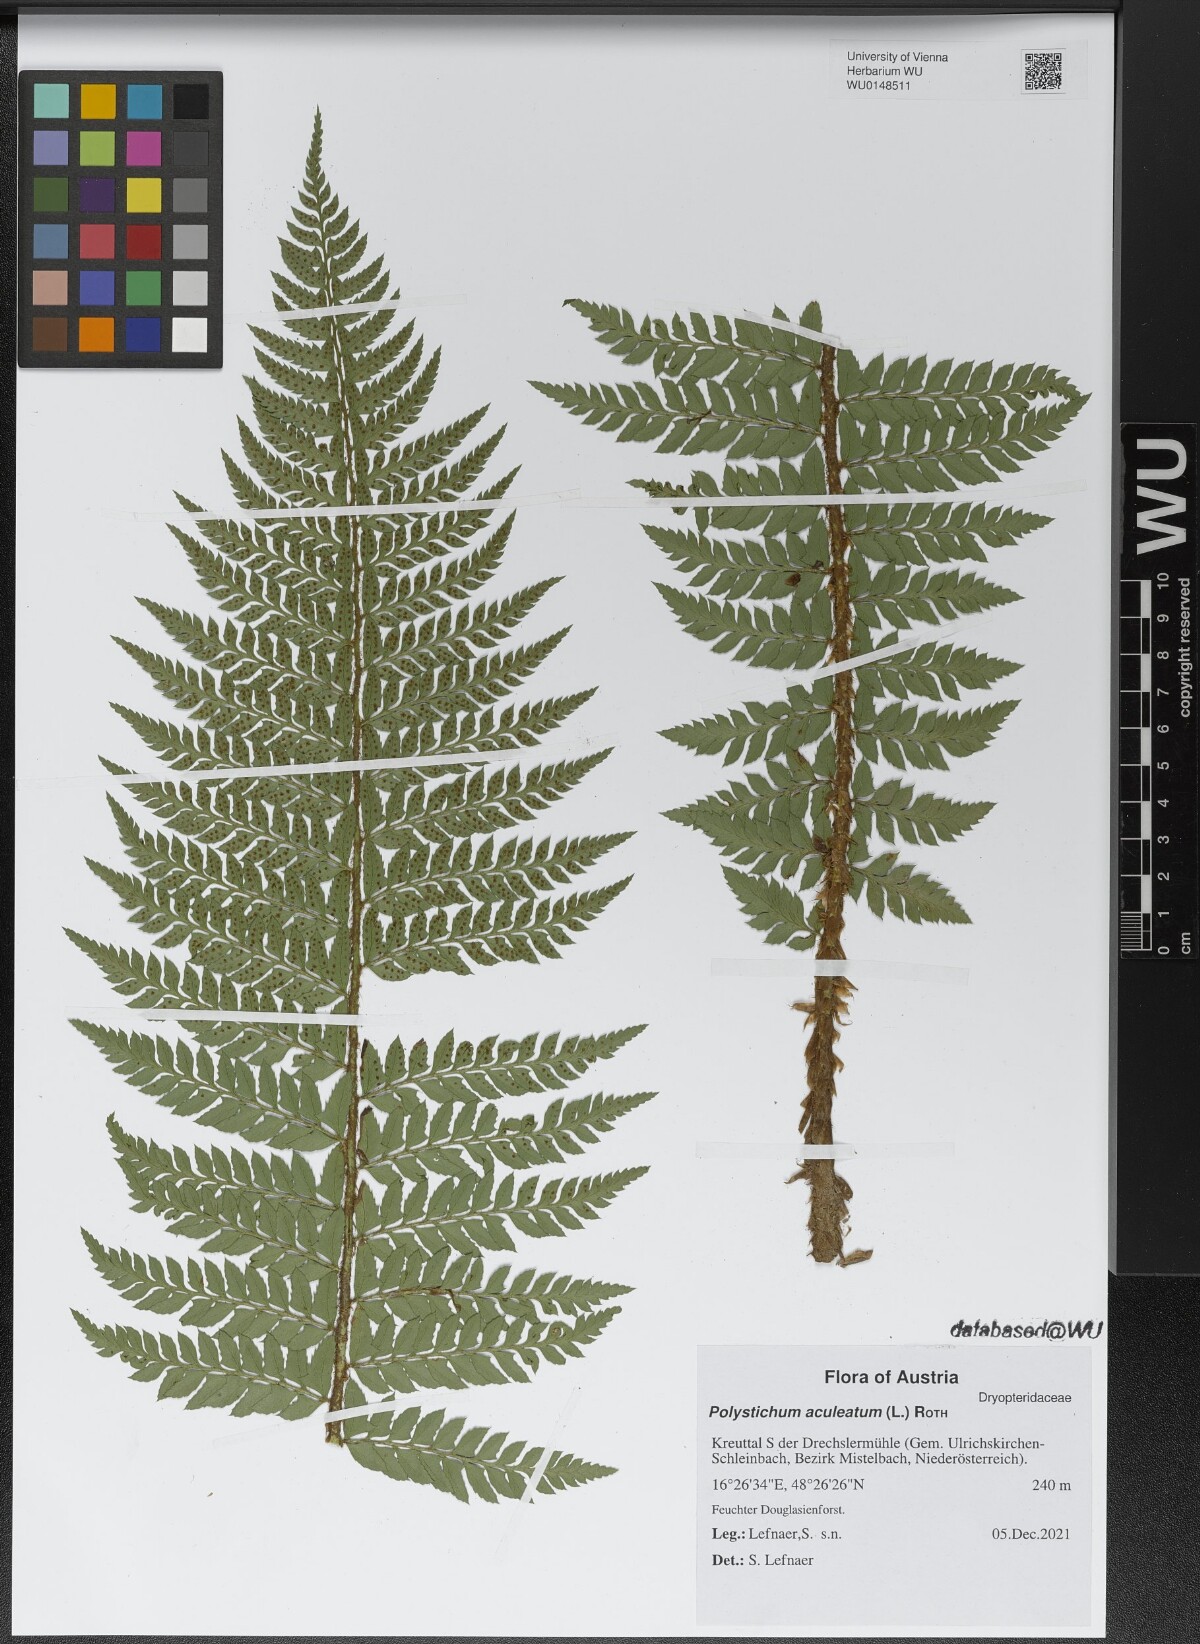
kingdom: Plantae
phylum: Tracheophyta
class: Polypodiopsida
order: Polypodiales
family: Dryopteridaceae
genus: Polystichum
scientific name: Polystichum aculeatum
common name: Hard shield-fern
